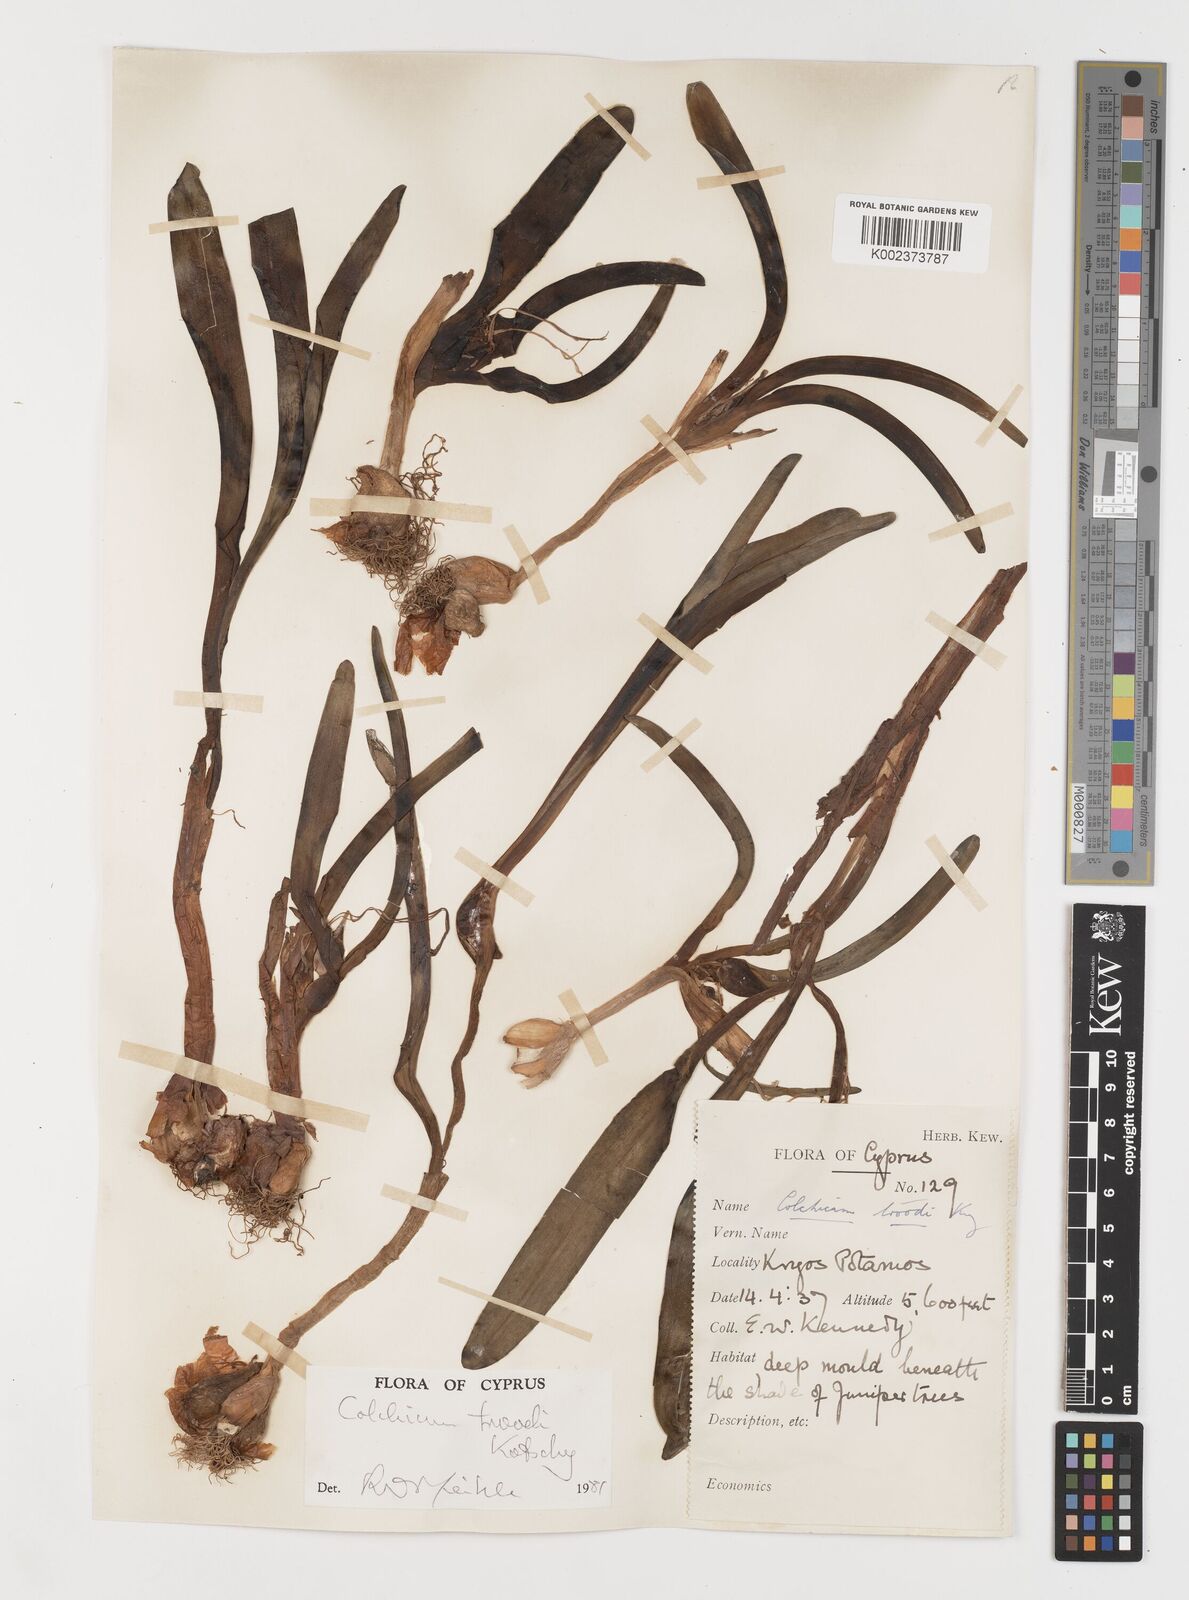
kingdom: Plantae
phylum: Tracheophyta
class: Liliopsida
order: Liliales
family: Colchicaceae
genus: Colchicum
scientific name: Colchicum
